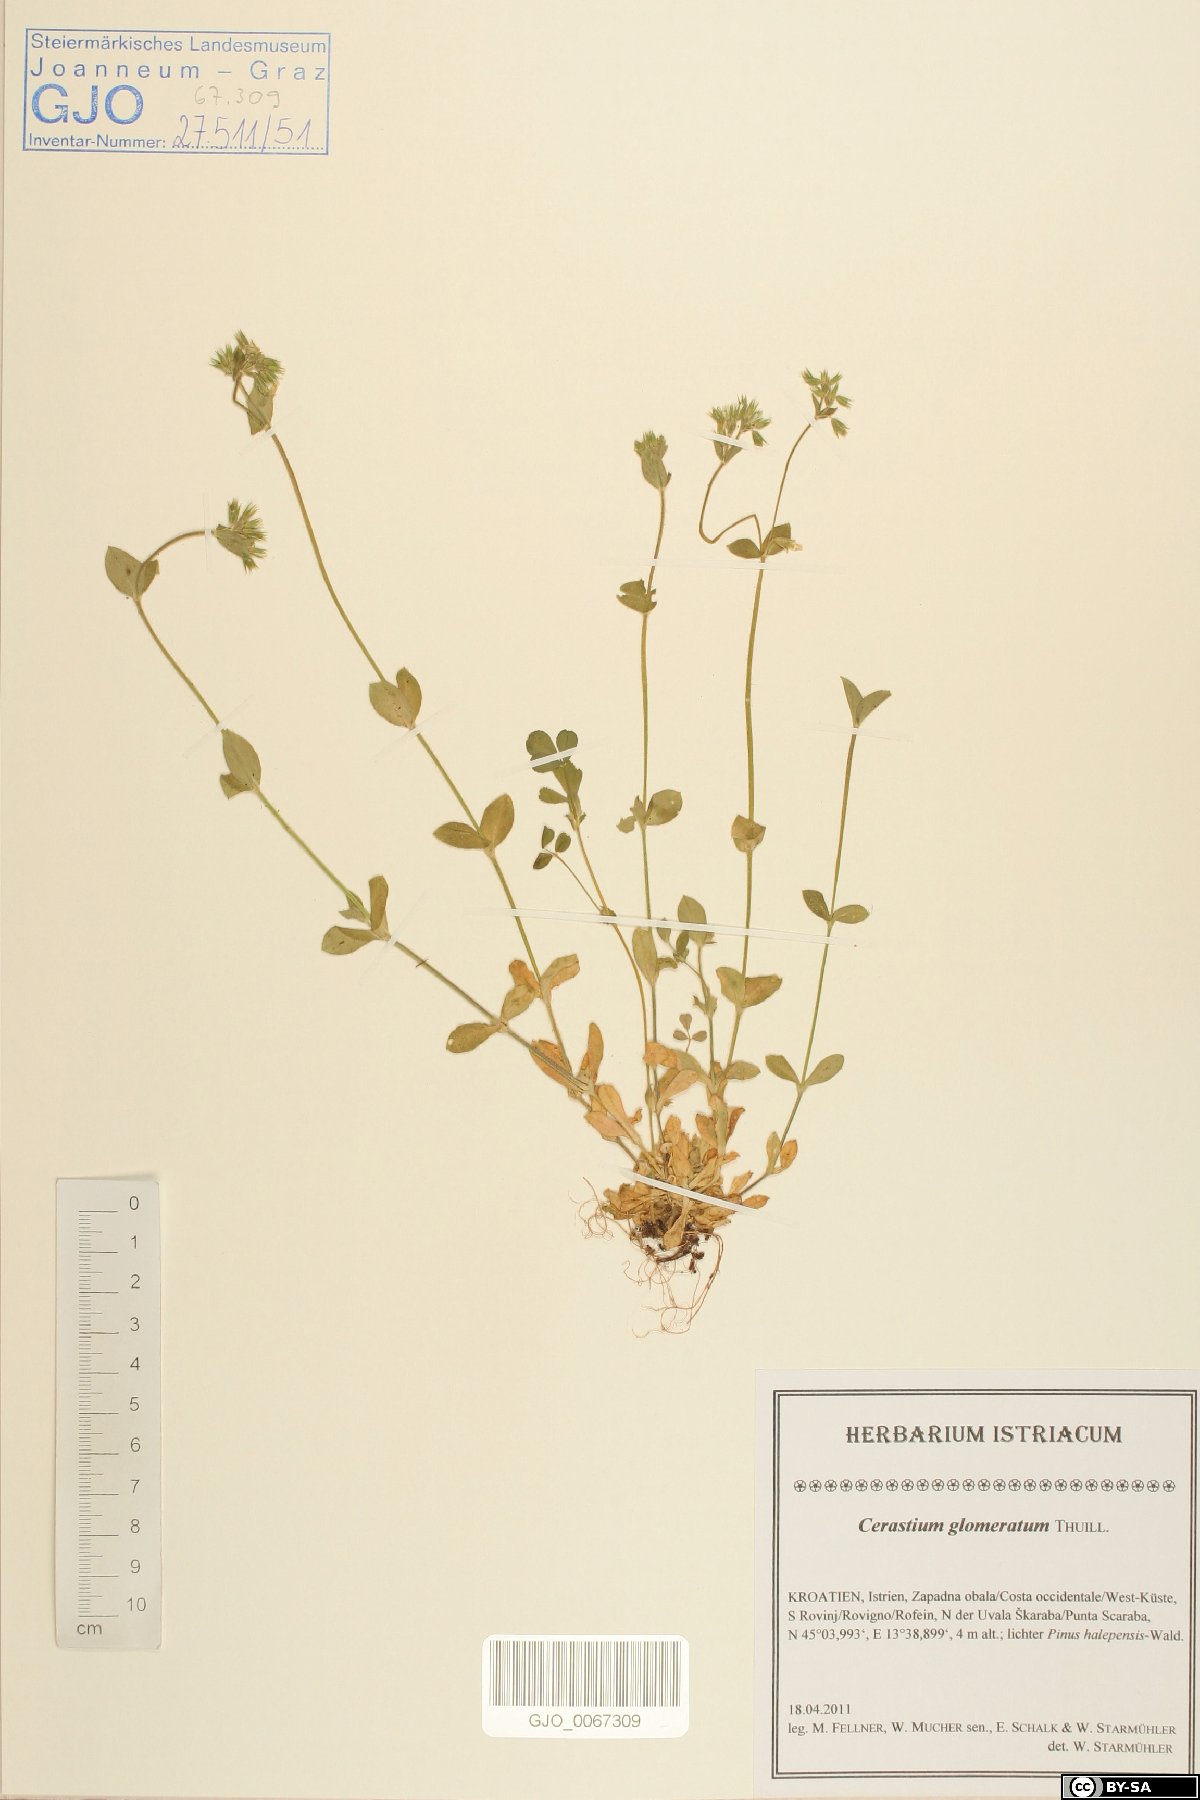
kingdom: Plantae
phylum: Tracheophyta
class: Magnoliopsida
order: Caryophyllales
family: Caryophyllaceae
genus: Cerastium
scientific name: Cerastium glomeratum
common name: Sticky chickweed
